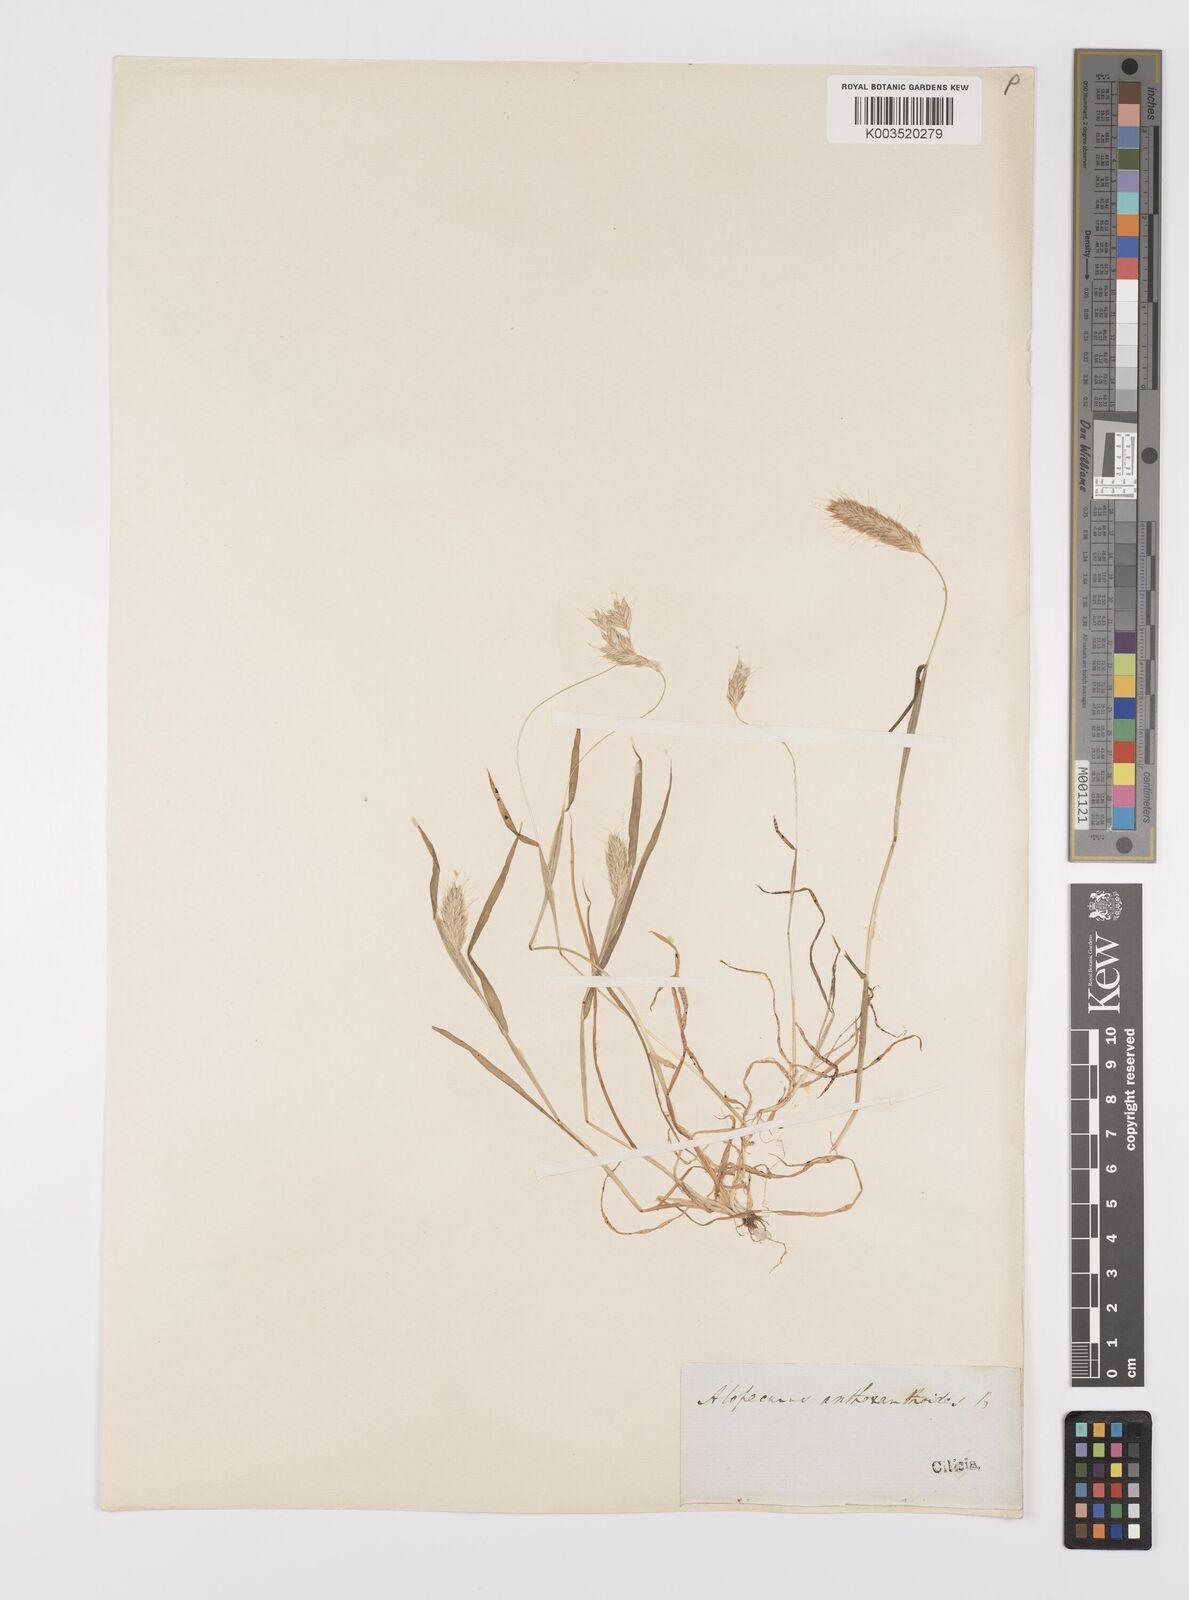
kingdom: Plantae
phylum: Tracheophyta
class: Liliopsida
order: Poales
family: Poaceae
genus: Alopecurus
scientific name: Alopecurus utriculatus
